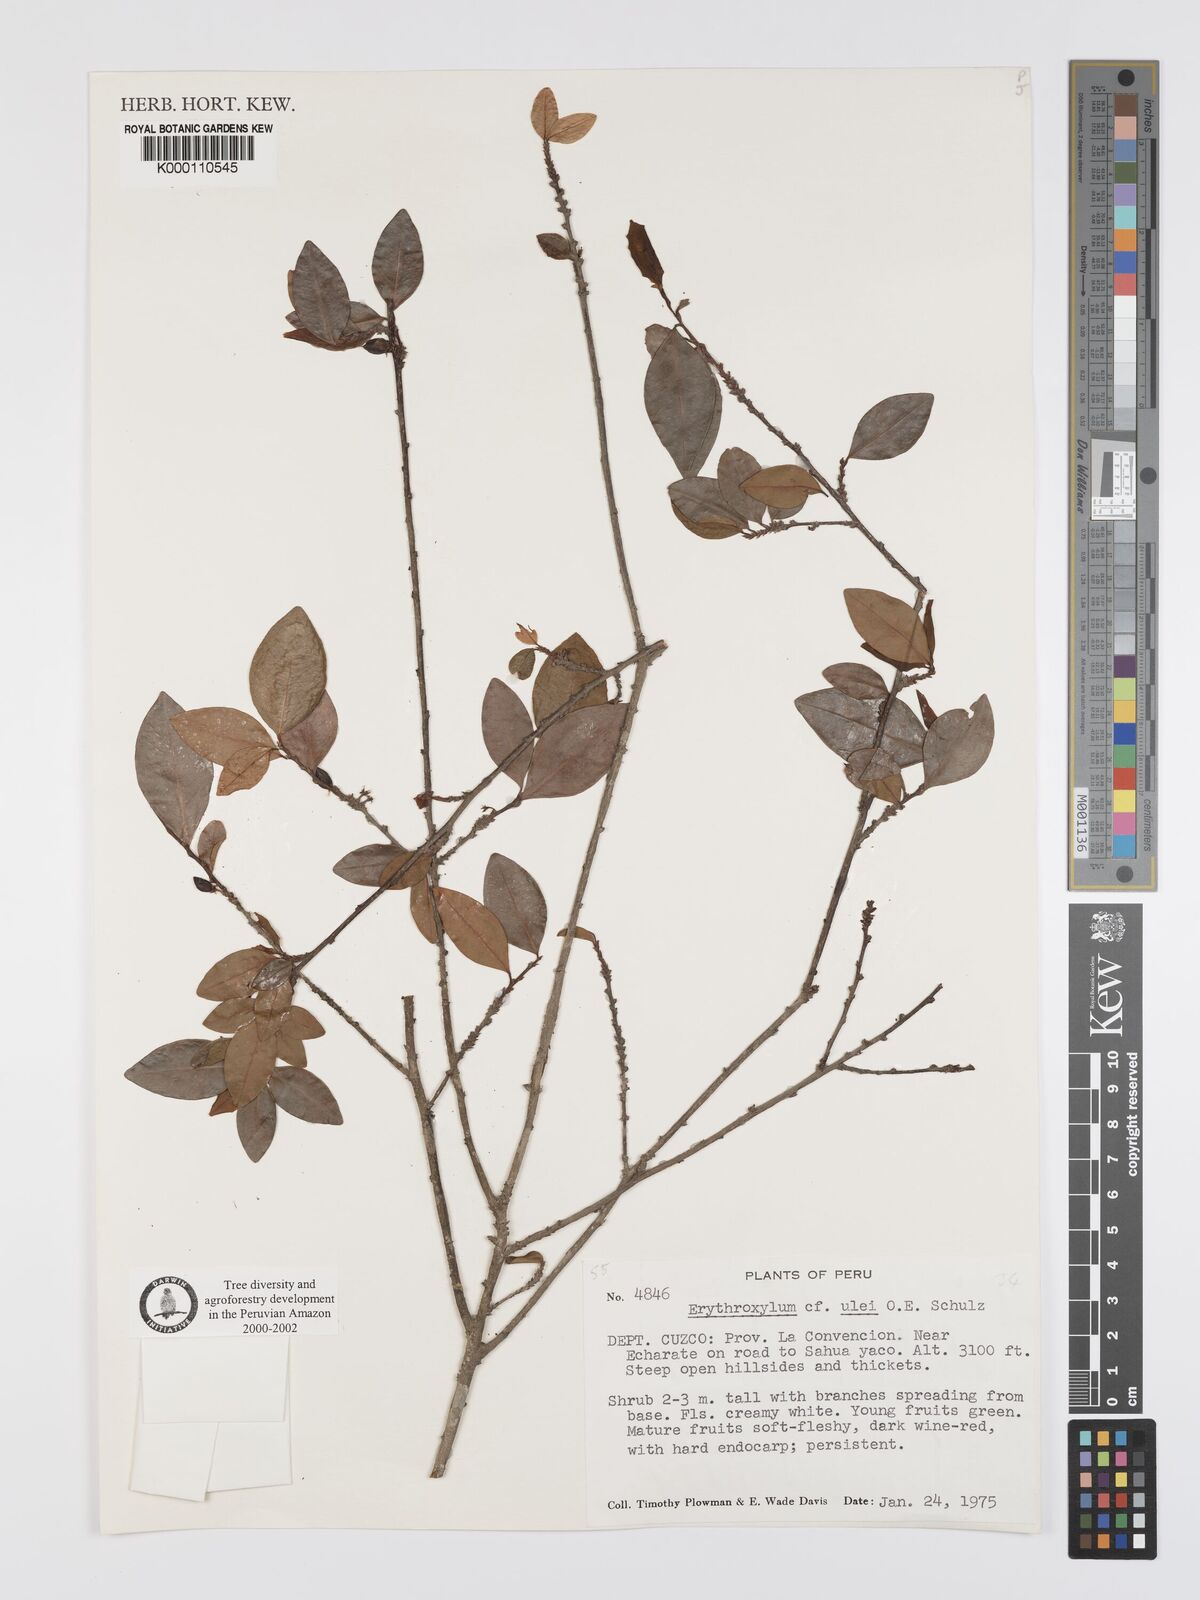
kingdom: Plantae
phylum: Tracheophyta
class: Magnoliopsida
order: Malpighiales
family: Erythroxylaceae
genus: Erythroxylum
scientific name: Erythroxylum ulei
